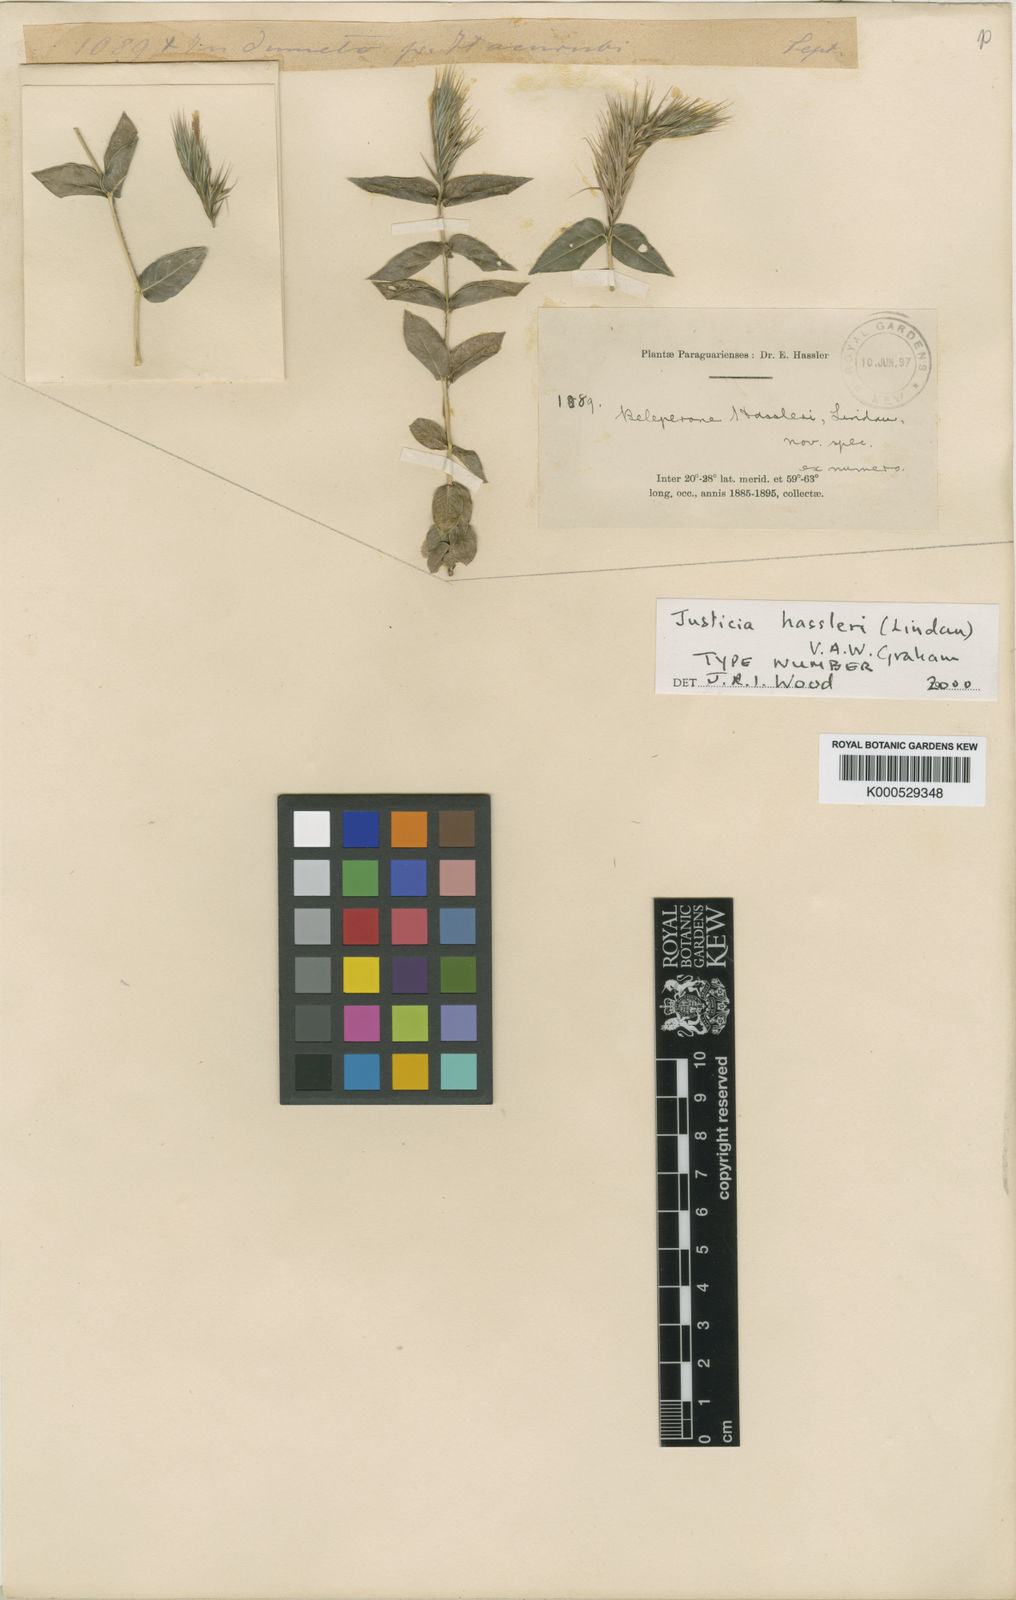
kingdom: Plantae
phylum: Tracheophyta
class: Magnoliopsida
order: Lamiales
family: Acanthaceae
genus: Justicia
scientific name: Justicia hassleri
